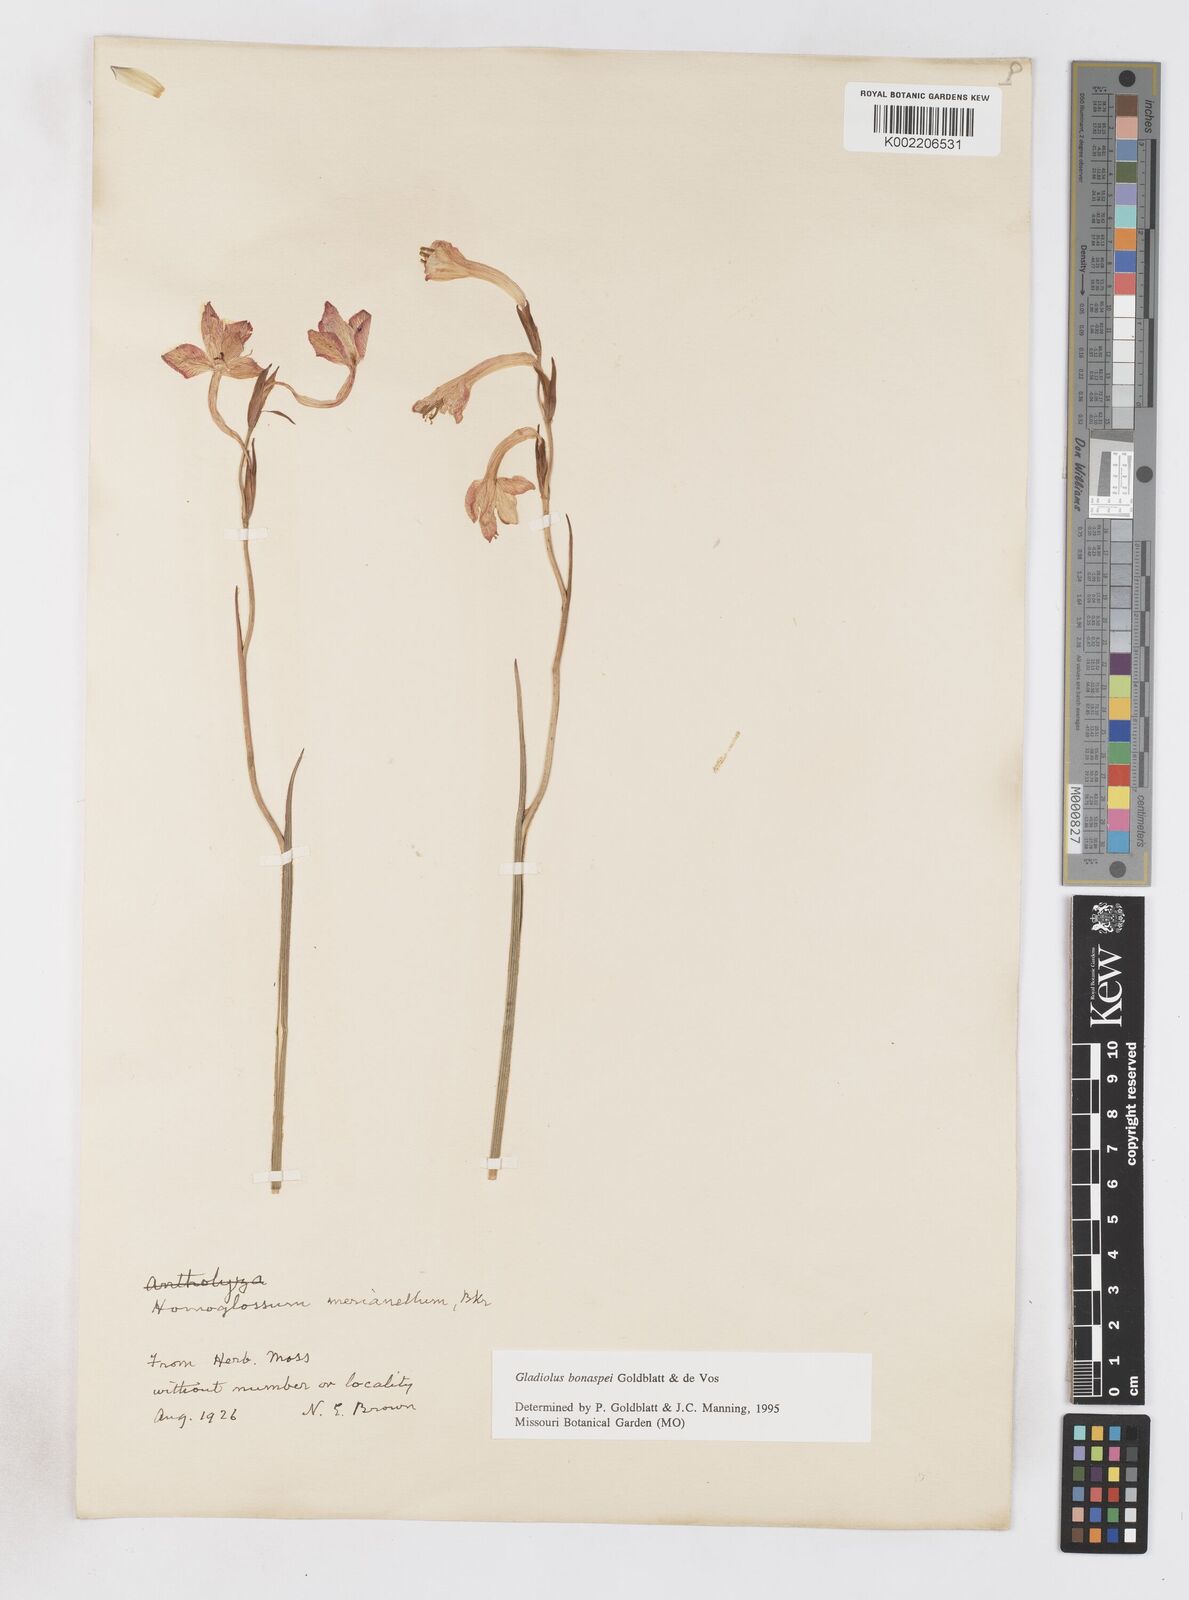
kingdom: Plantae
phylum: Tracheophyta
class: Liliopsida
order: Asparagales
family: Iridaceae
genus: Gladiolus
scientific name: Gladiolus merianellus
